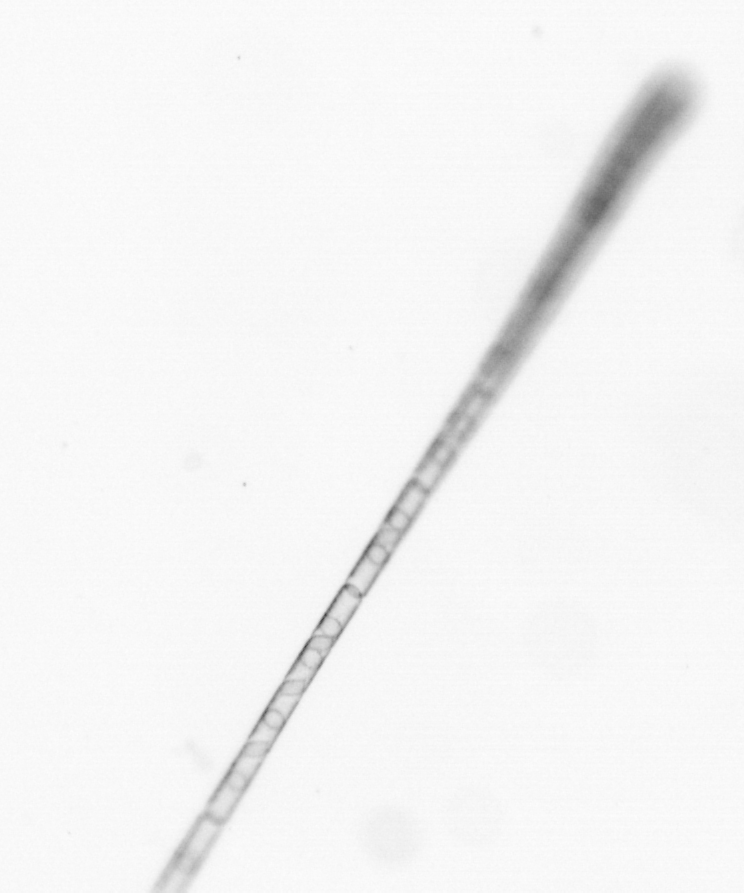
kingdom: Chromista
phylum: Ochrophyta
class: Bacillariophyceae
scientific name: Bacillariophyceae
